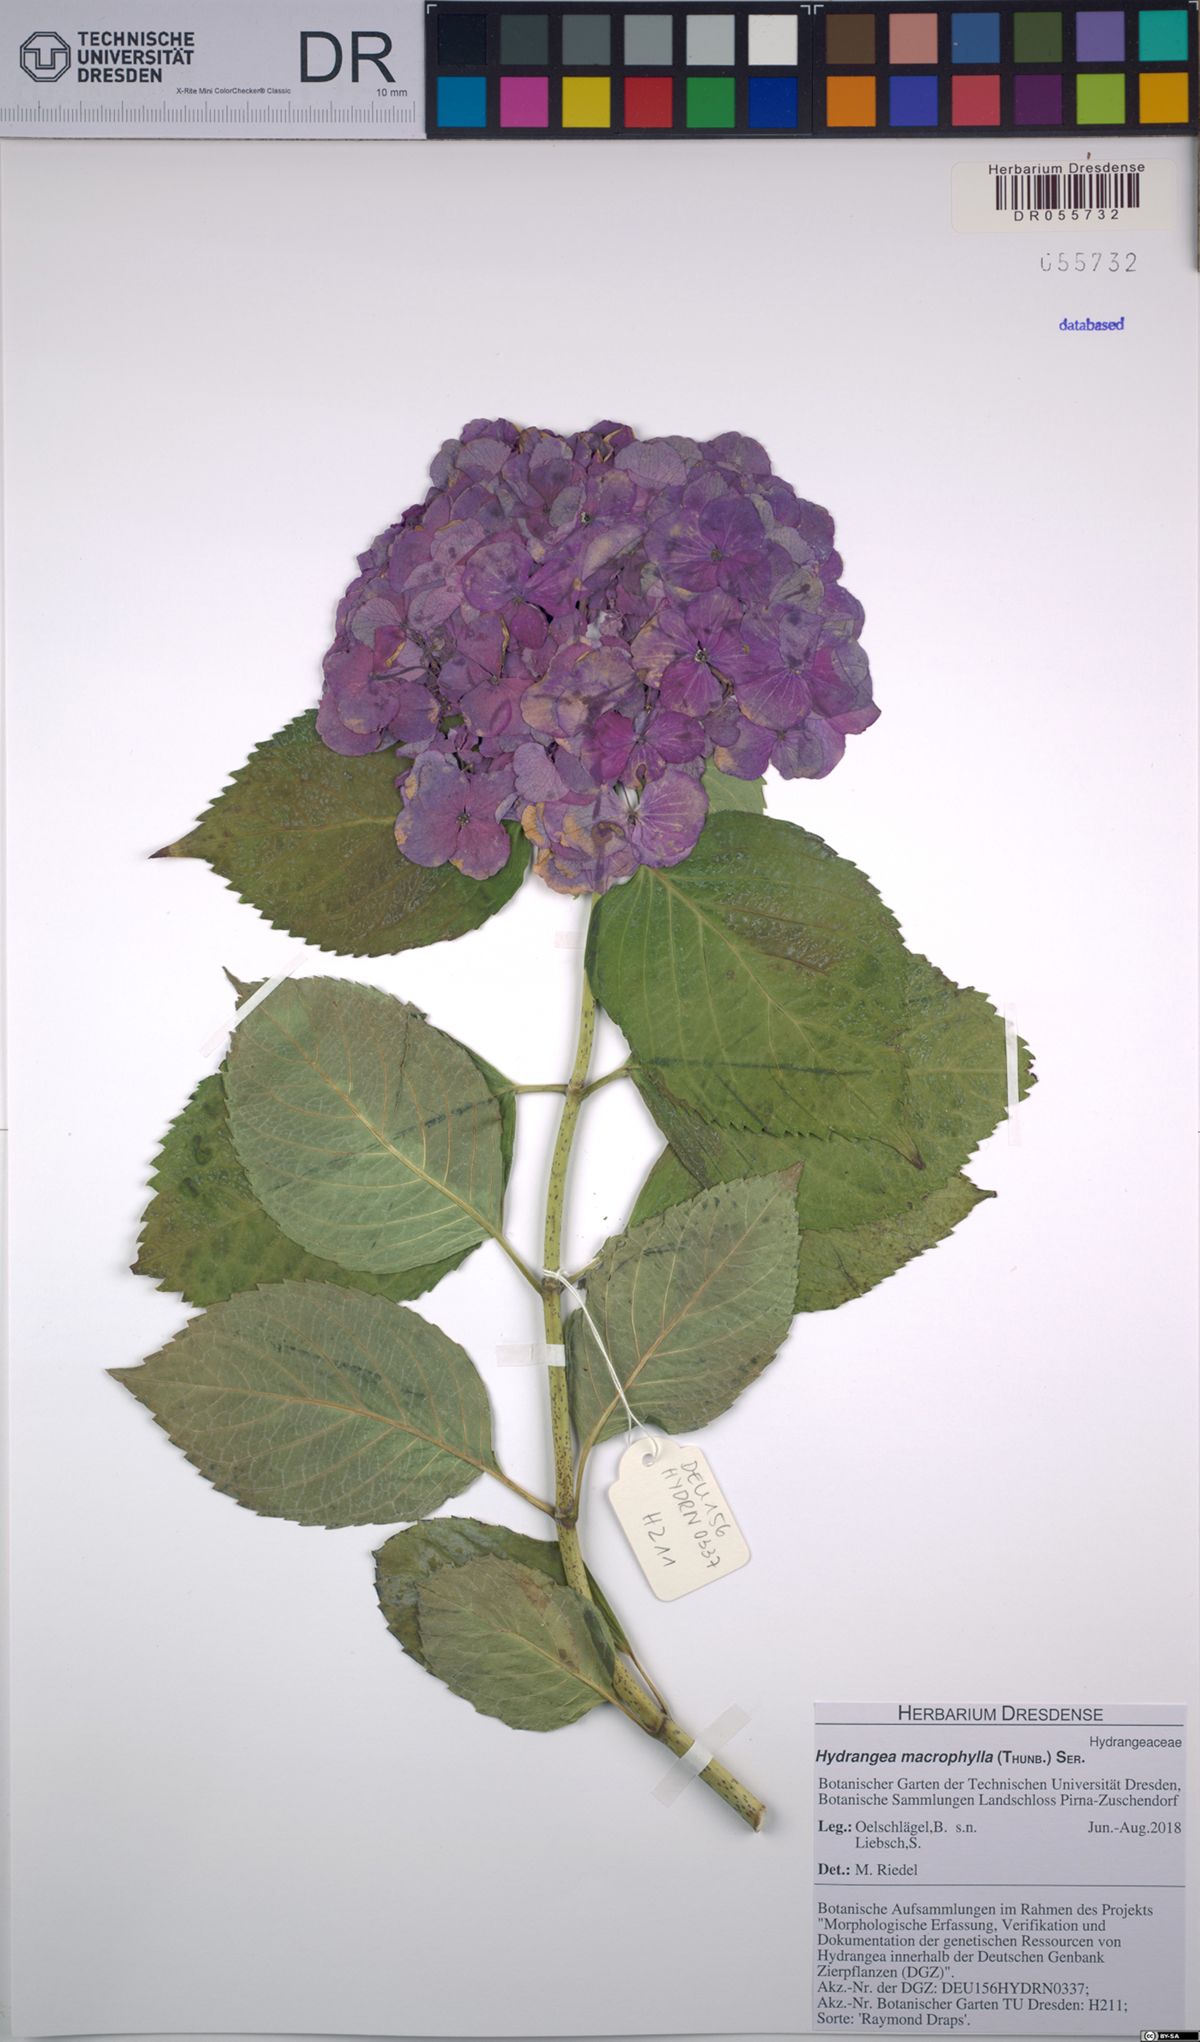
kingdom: Plantae
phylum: Tracheophyta
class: Magnoliopsida
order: Cornales
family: Hydrangeaceae
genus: Hydrangea
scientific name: Hydrangea macrophylla
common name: Hydrangea
